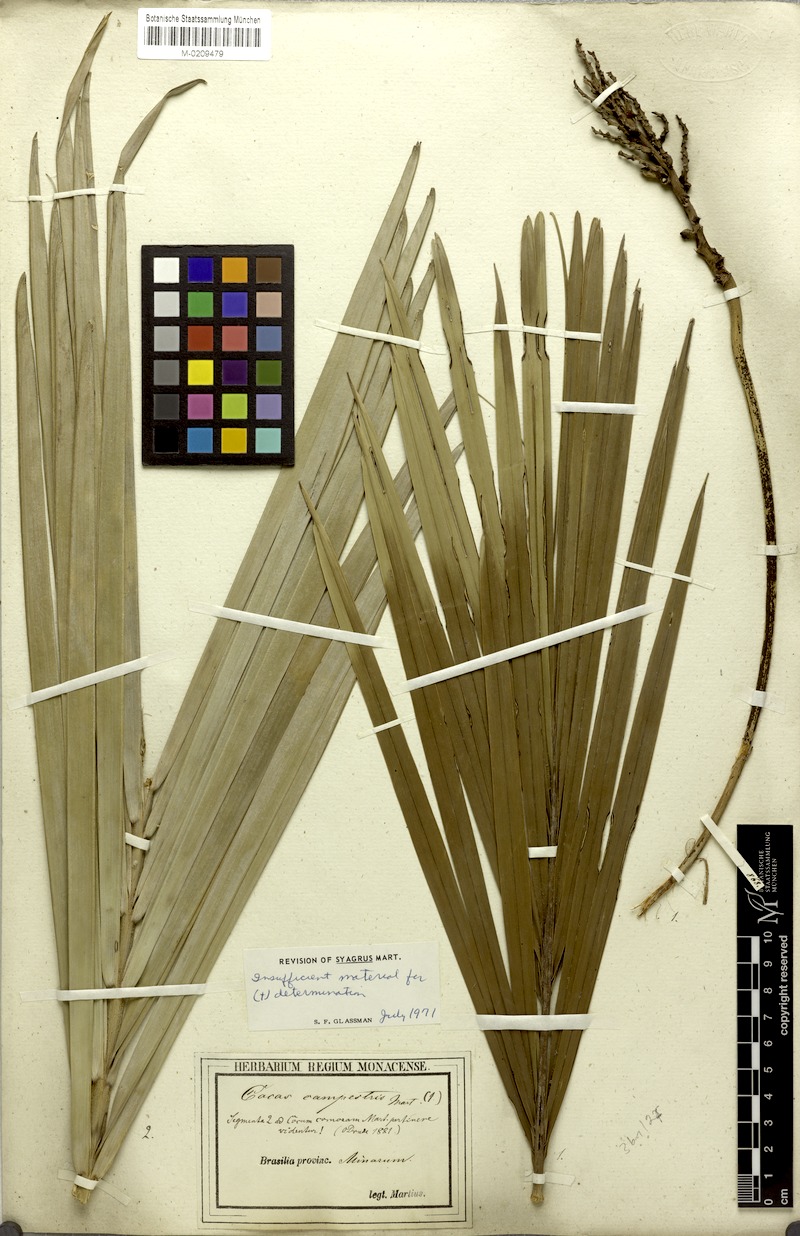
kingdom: Plantae
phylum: Tracheophyta
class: Liliopsida
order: Arecales
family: Arecaceae
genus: Syagrus
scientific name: Syagrus
